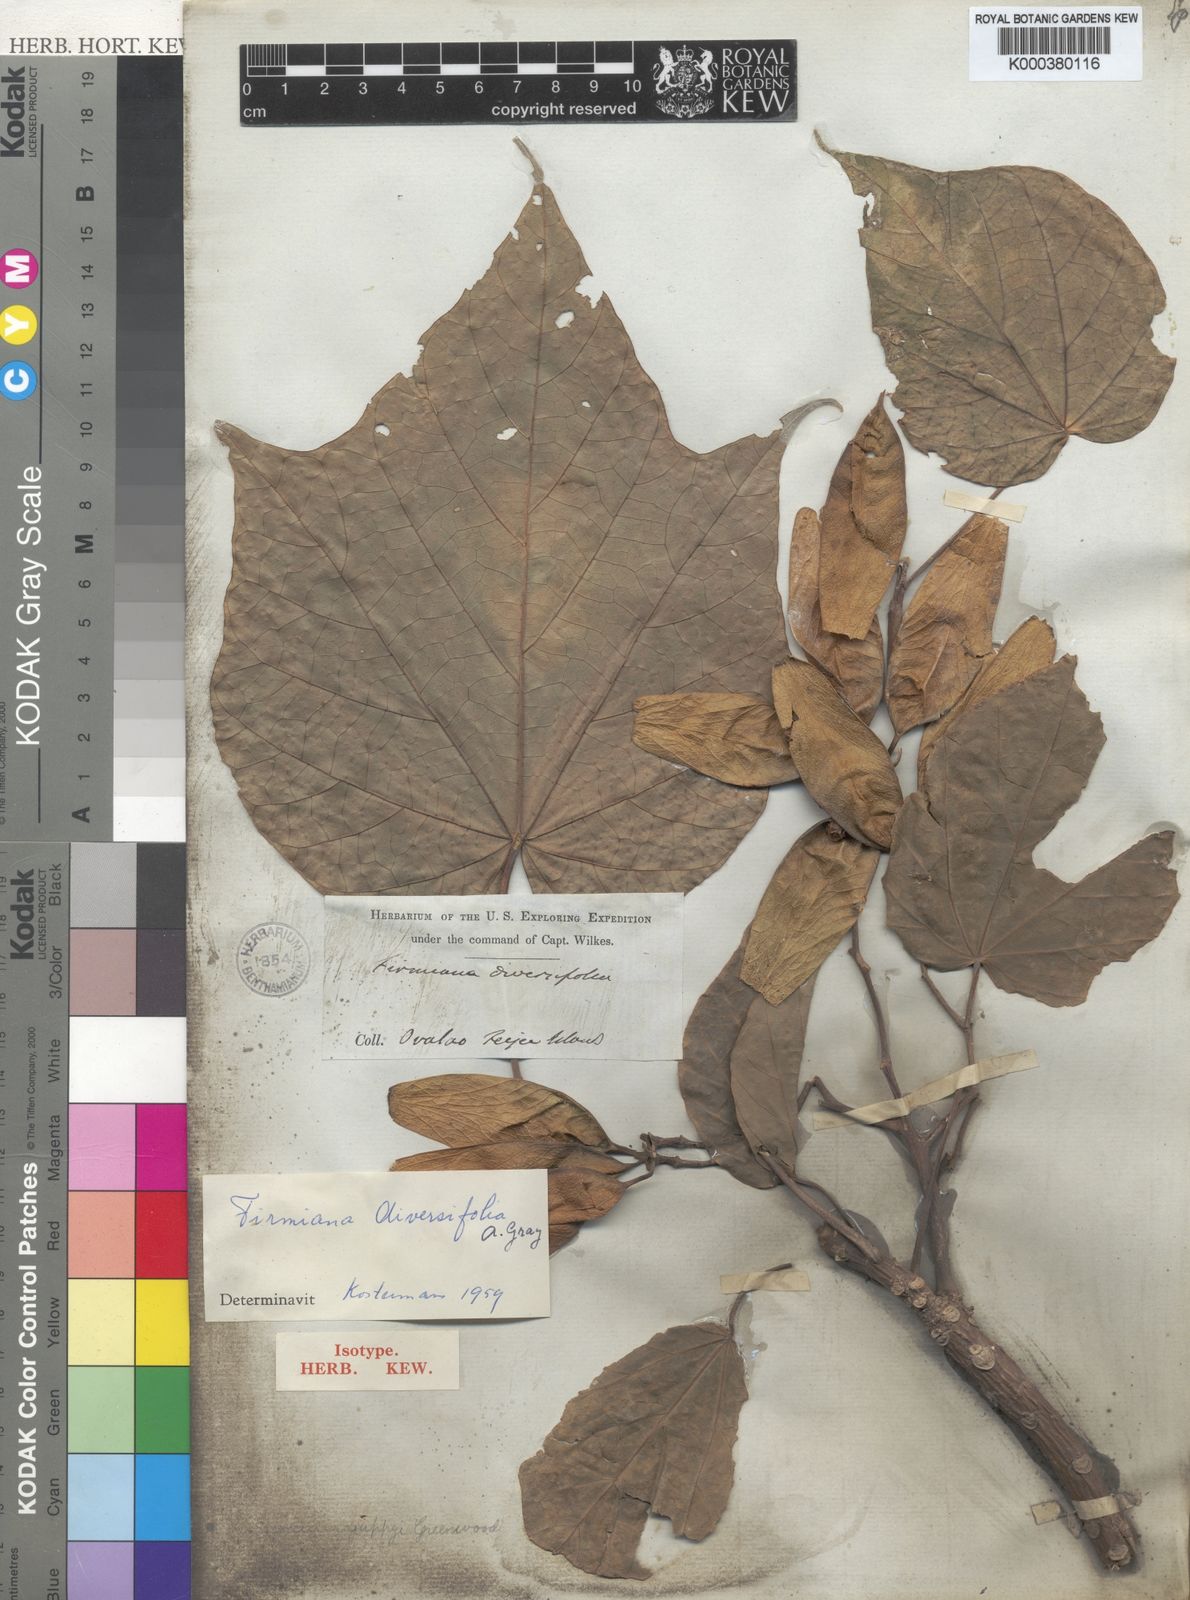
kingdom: Plantae
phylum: Tracheophyta
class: Magnoliopsida
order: Malvales
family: Malvaceae
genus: Firmiana
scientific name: Firmiana diversifolia
